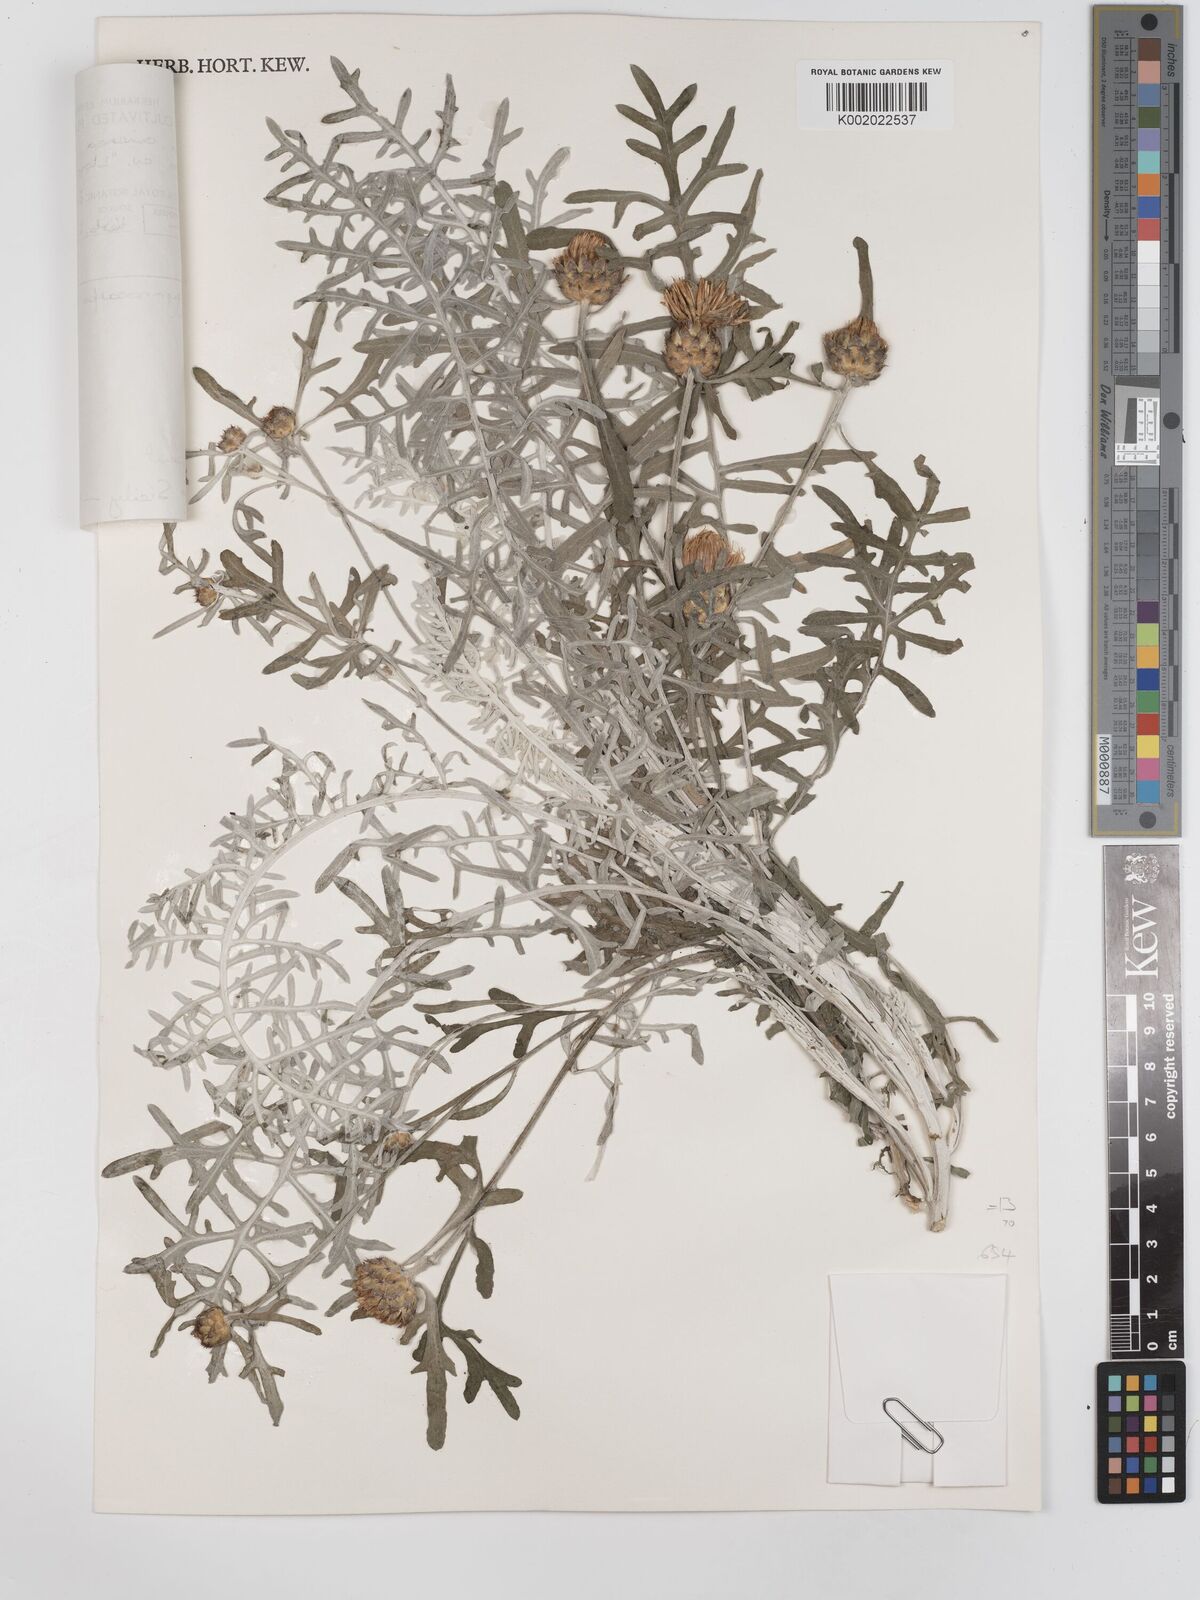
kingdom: Plantae
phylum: Tracheophyta
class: Magnoliopsida
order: Asterales
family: Asteraceae
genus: Centaurea
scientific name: Centaurea
